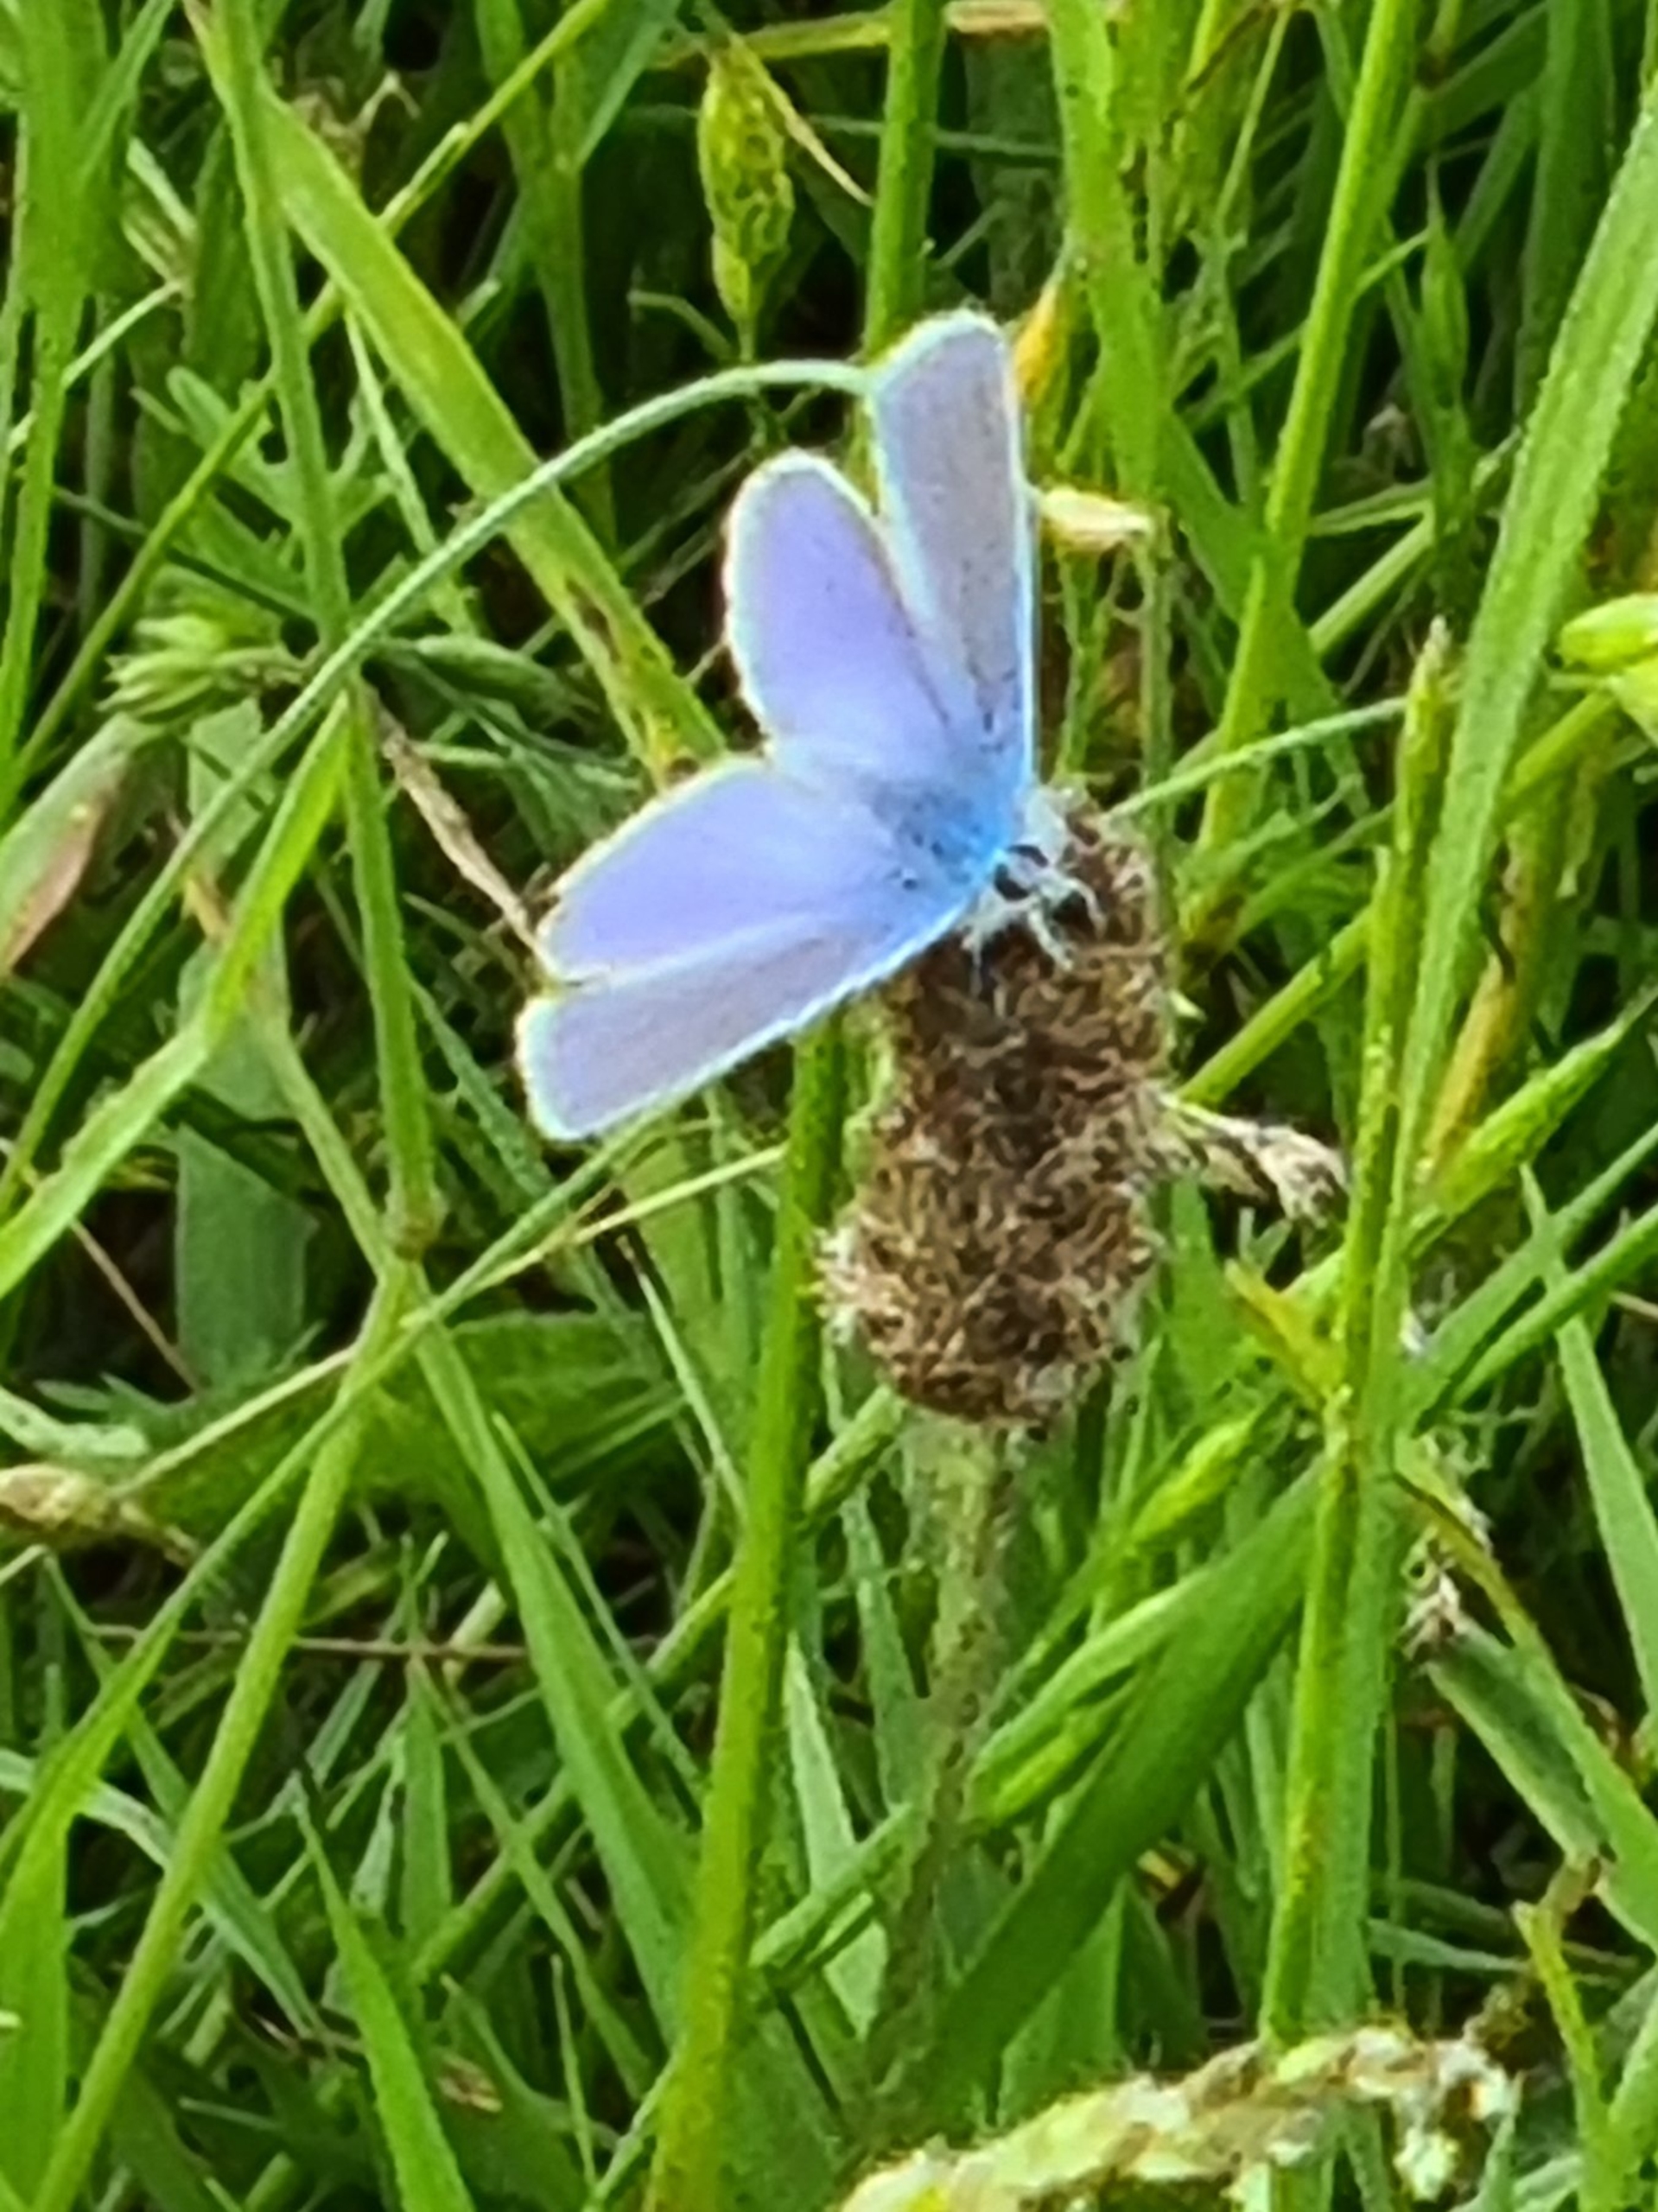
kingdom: Animalia
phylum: Arthropoda
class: Insecta
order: Lepidoptera
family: Lycaenidae
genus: Polyommatus
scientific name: Polyommatus icarus
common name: Almindelig blåfugl
